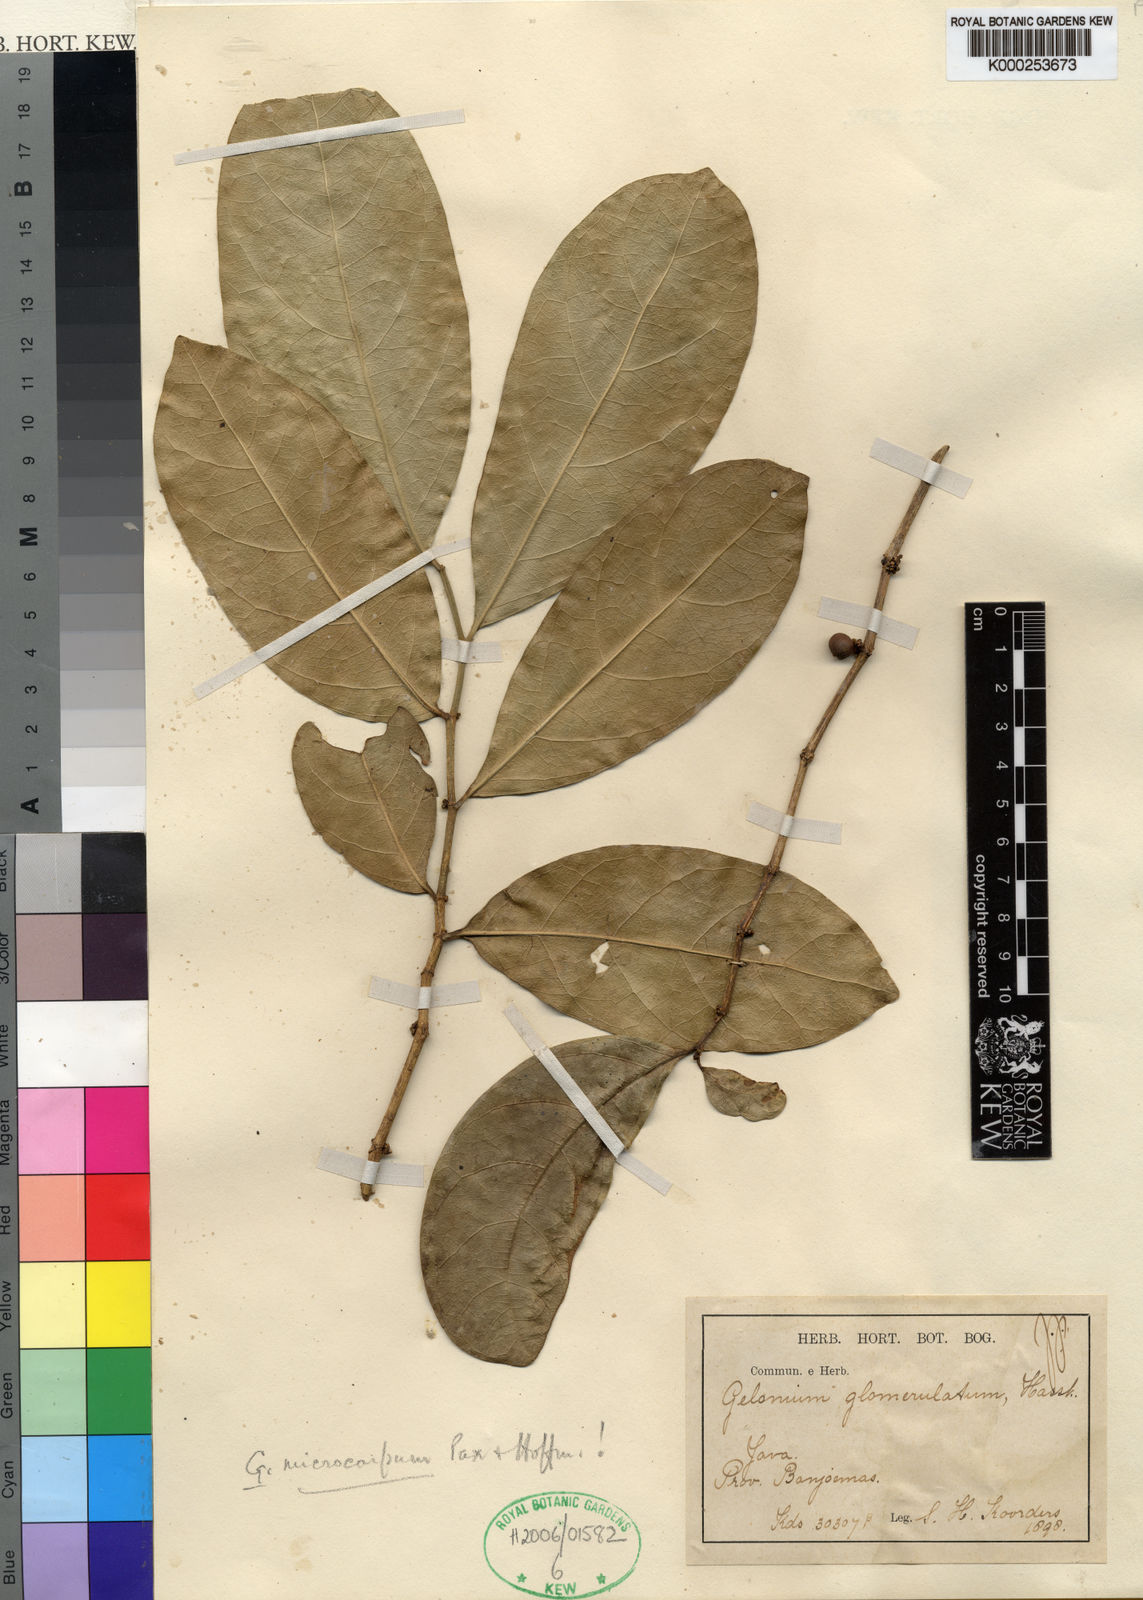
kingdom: Plantae
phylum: Tracheophyta
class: Magnoliopsida
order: Malpighiales
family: Euphorbiaceae
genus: Suregada
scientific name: Suregada glomerulata
